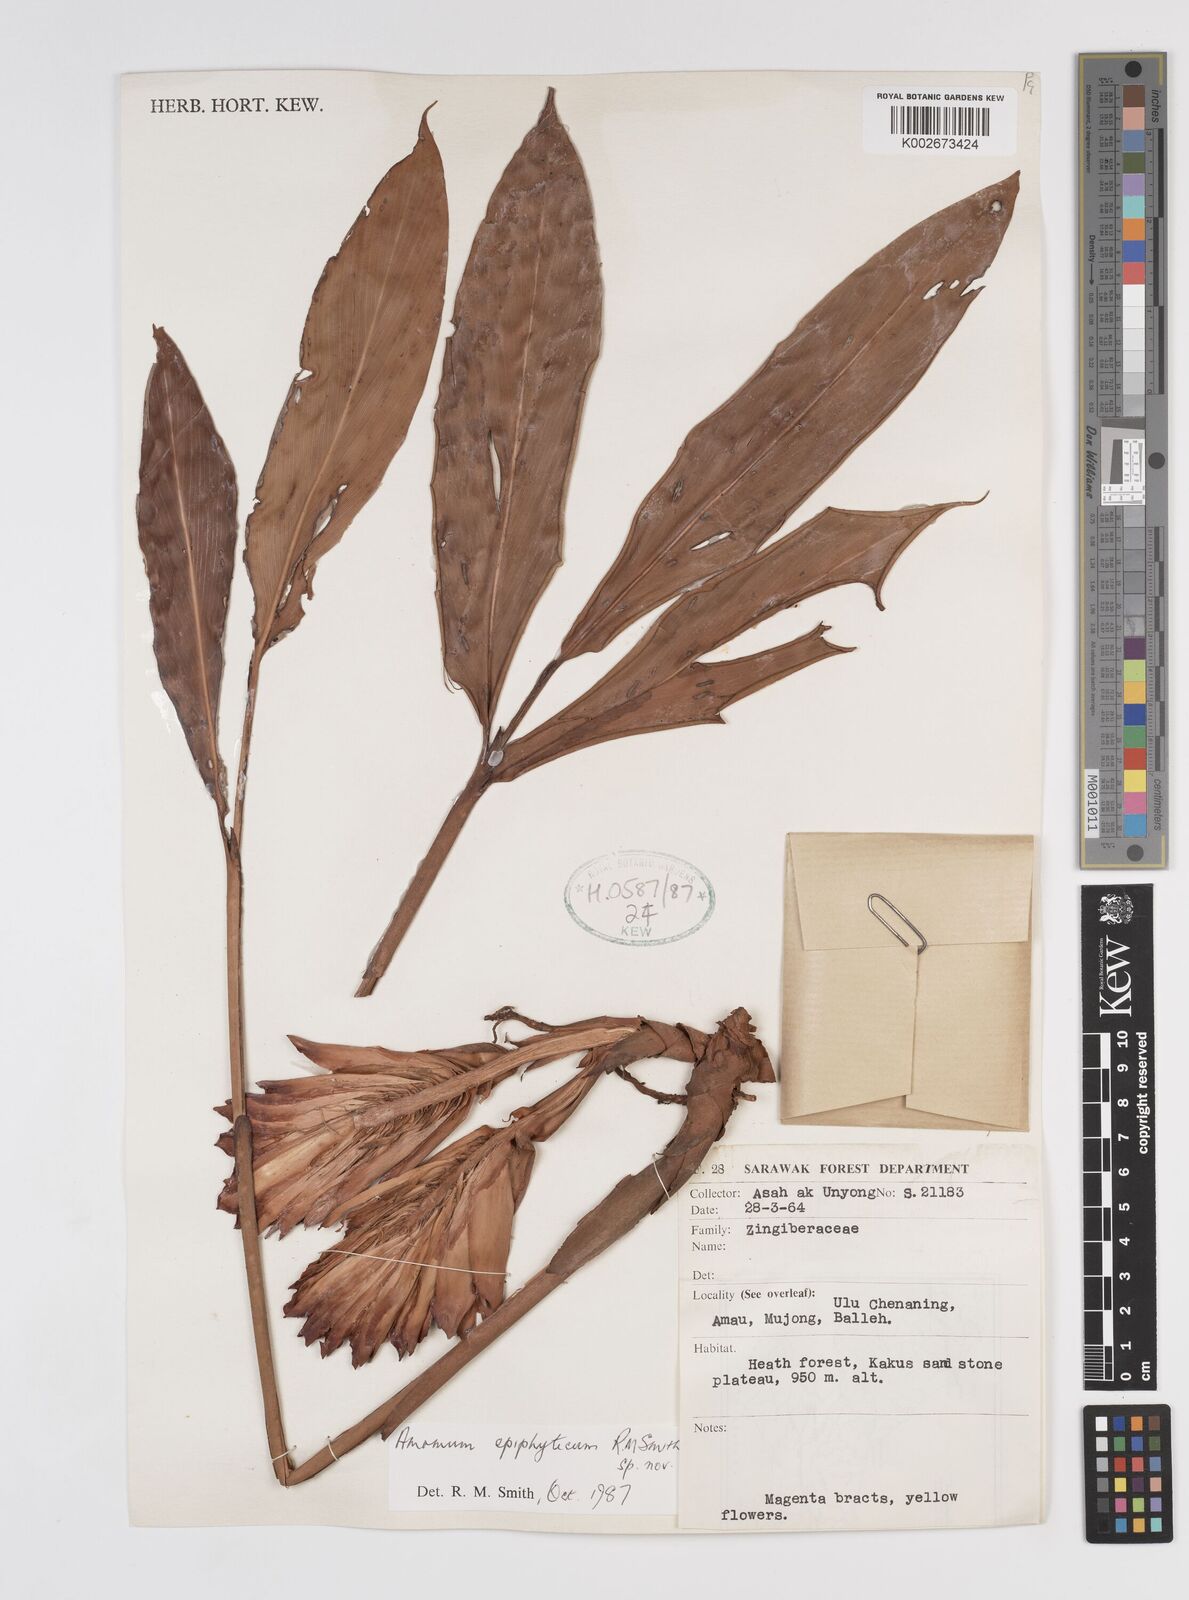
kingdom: Plantae
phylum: Tracheophyta
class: Liliopsida
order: Zingiberales
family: Zingiberaceae
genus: Epiamomum
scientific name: Epiamomum epiphyticum
